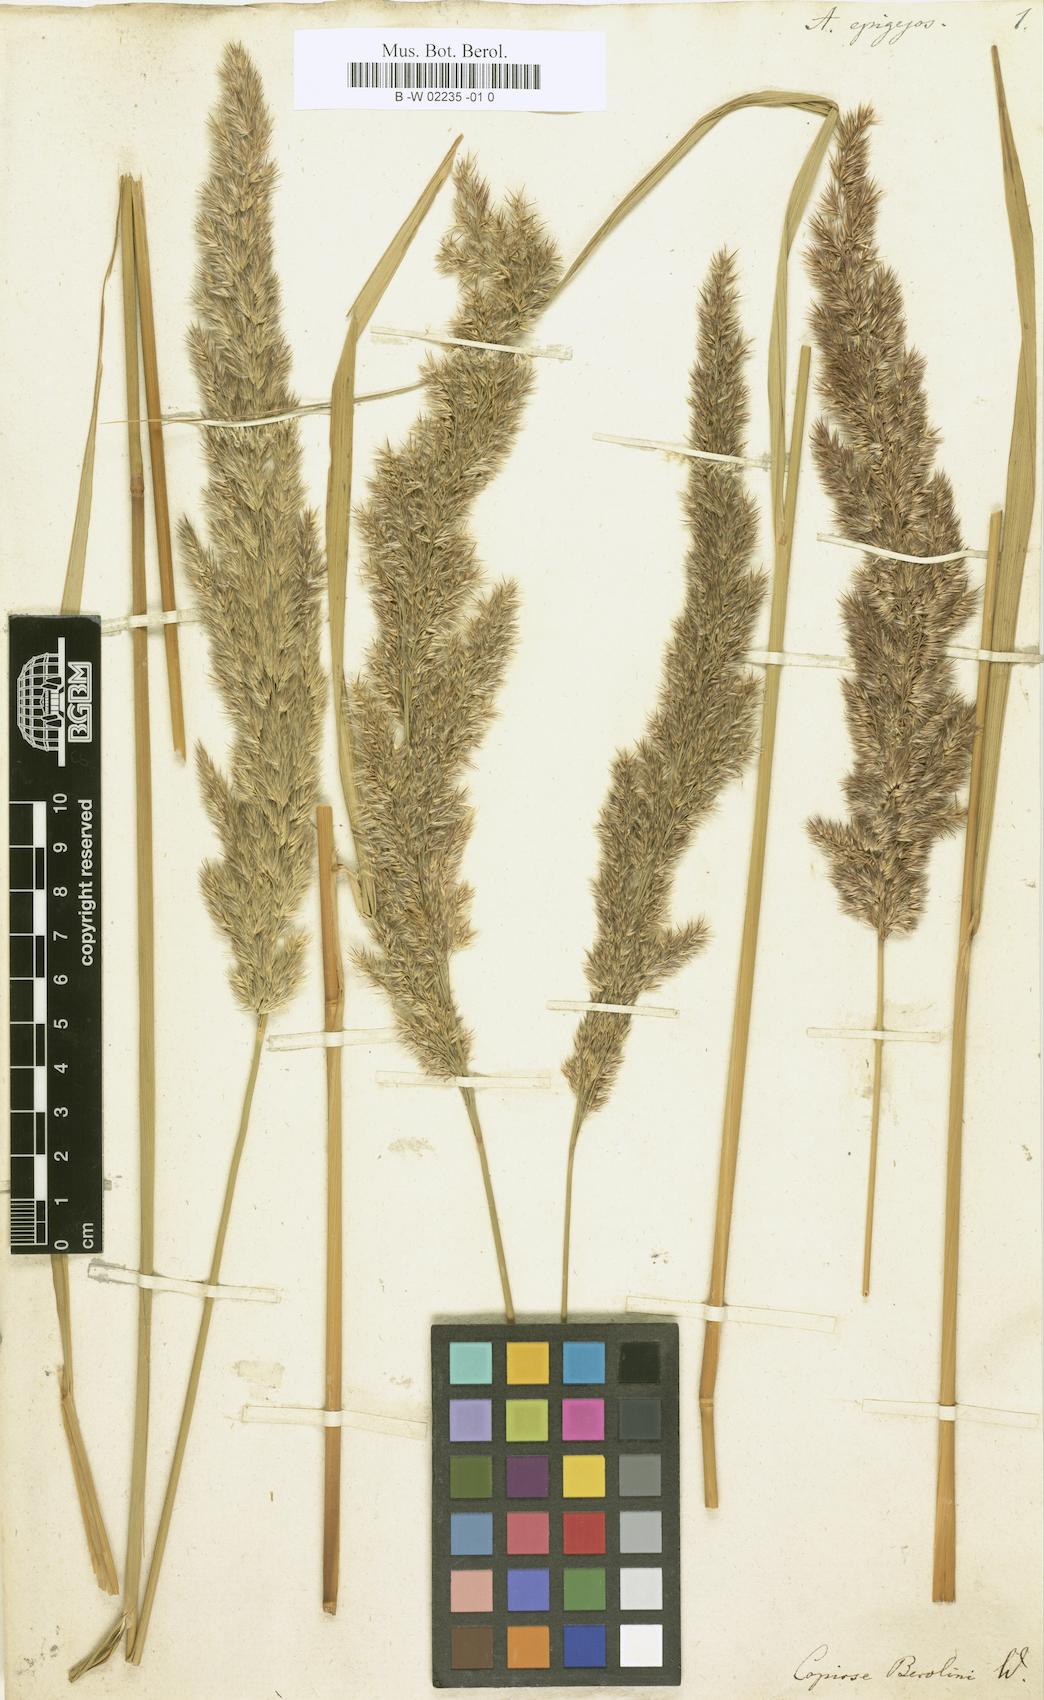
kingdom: Plantae
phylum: Tracheophyta
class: Liliopsida
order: Poales
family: Poaceae
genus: Calamagrostis
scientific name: Calamagrostis epigejos
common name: Wood small-reed
